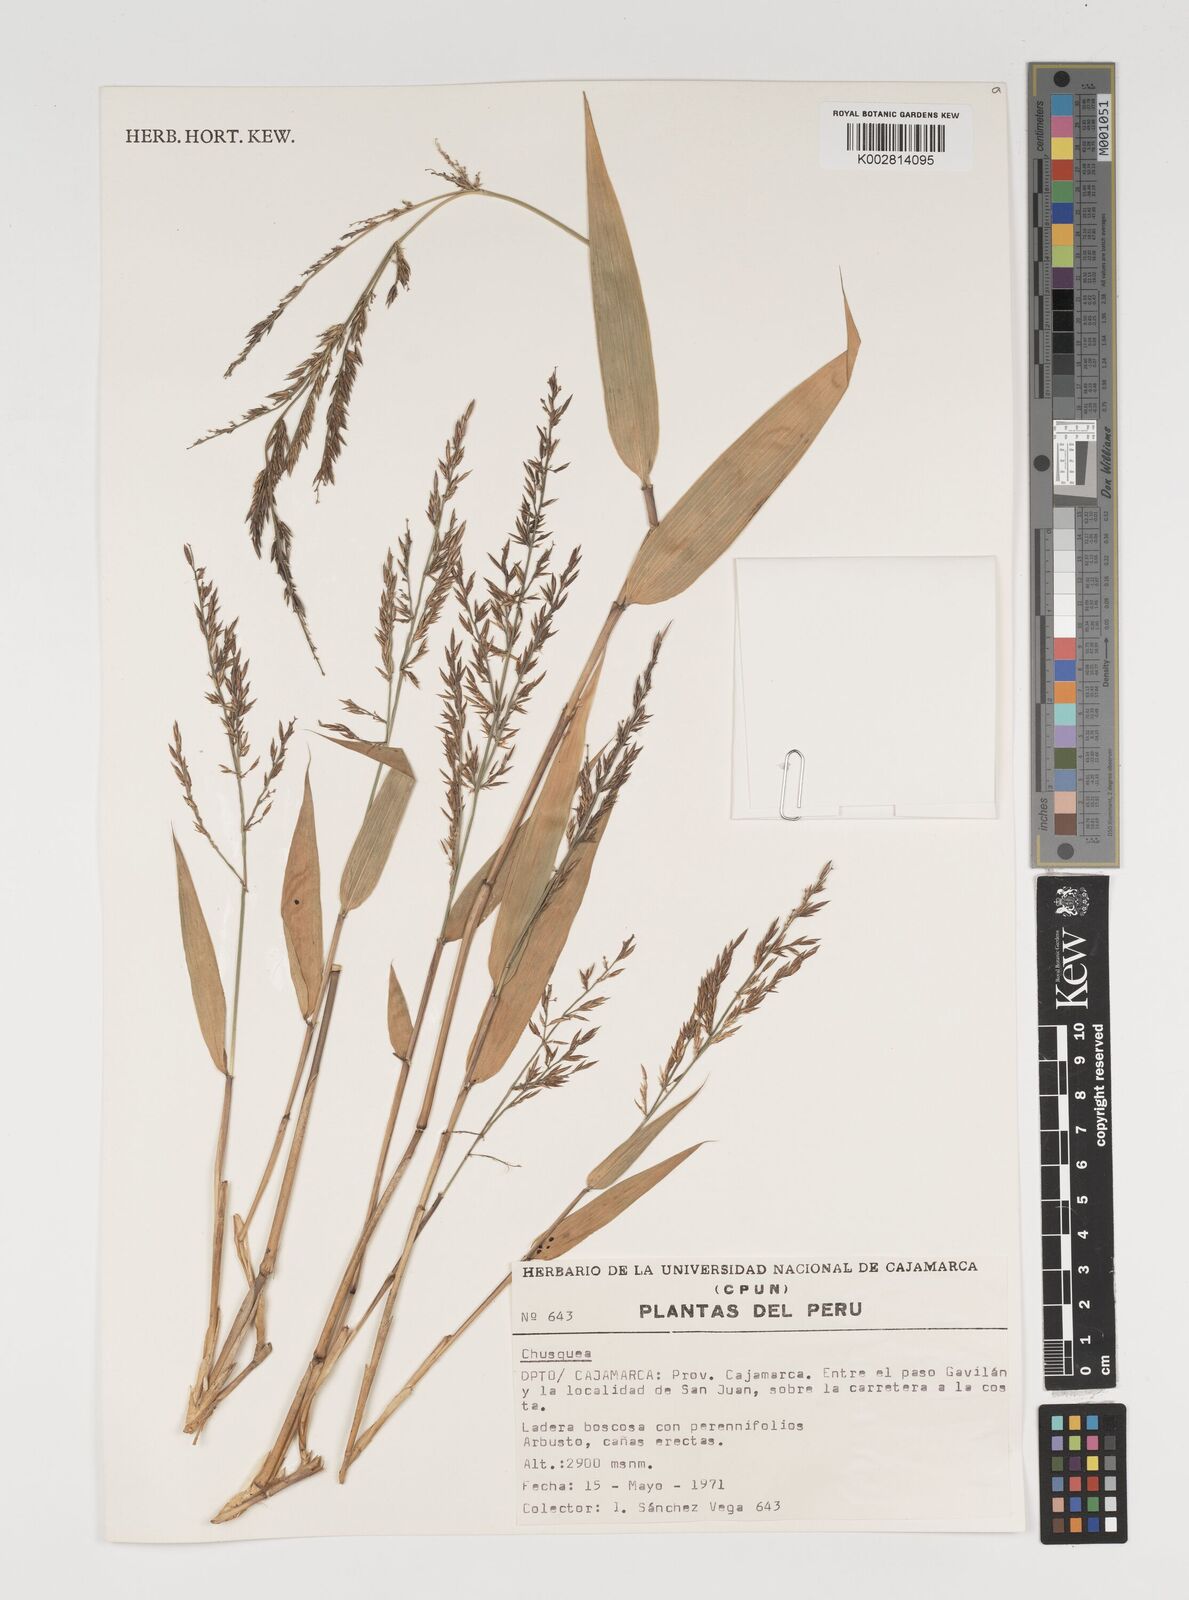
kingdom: Plantae
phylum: Tracheophyta
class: Liliopsida
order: Poales
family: Poaceae
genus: Chusquea
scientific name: Chusquea
